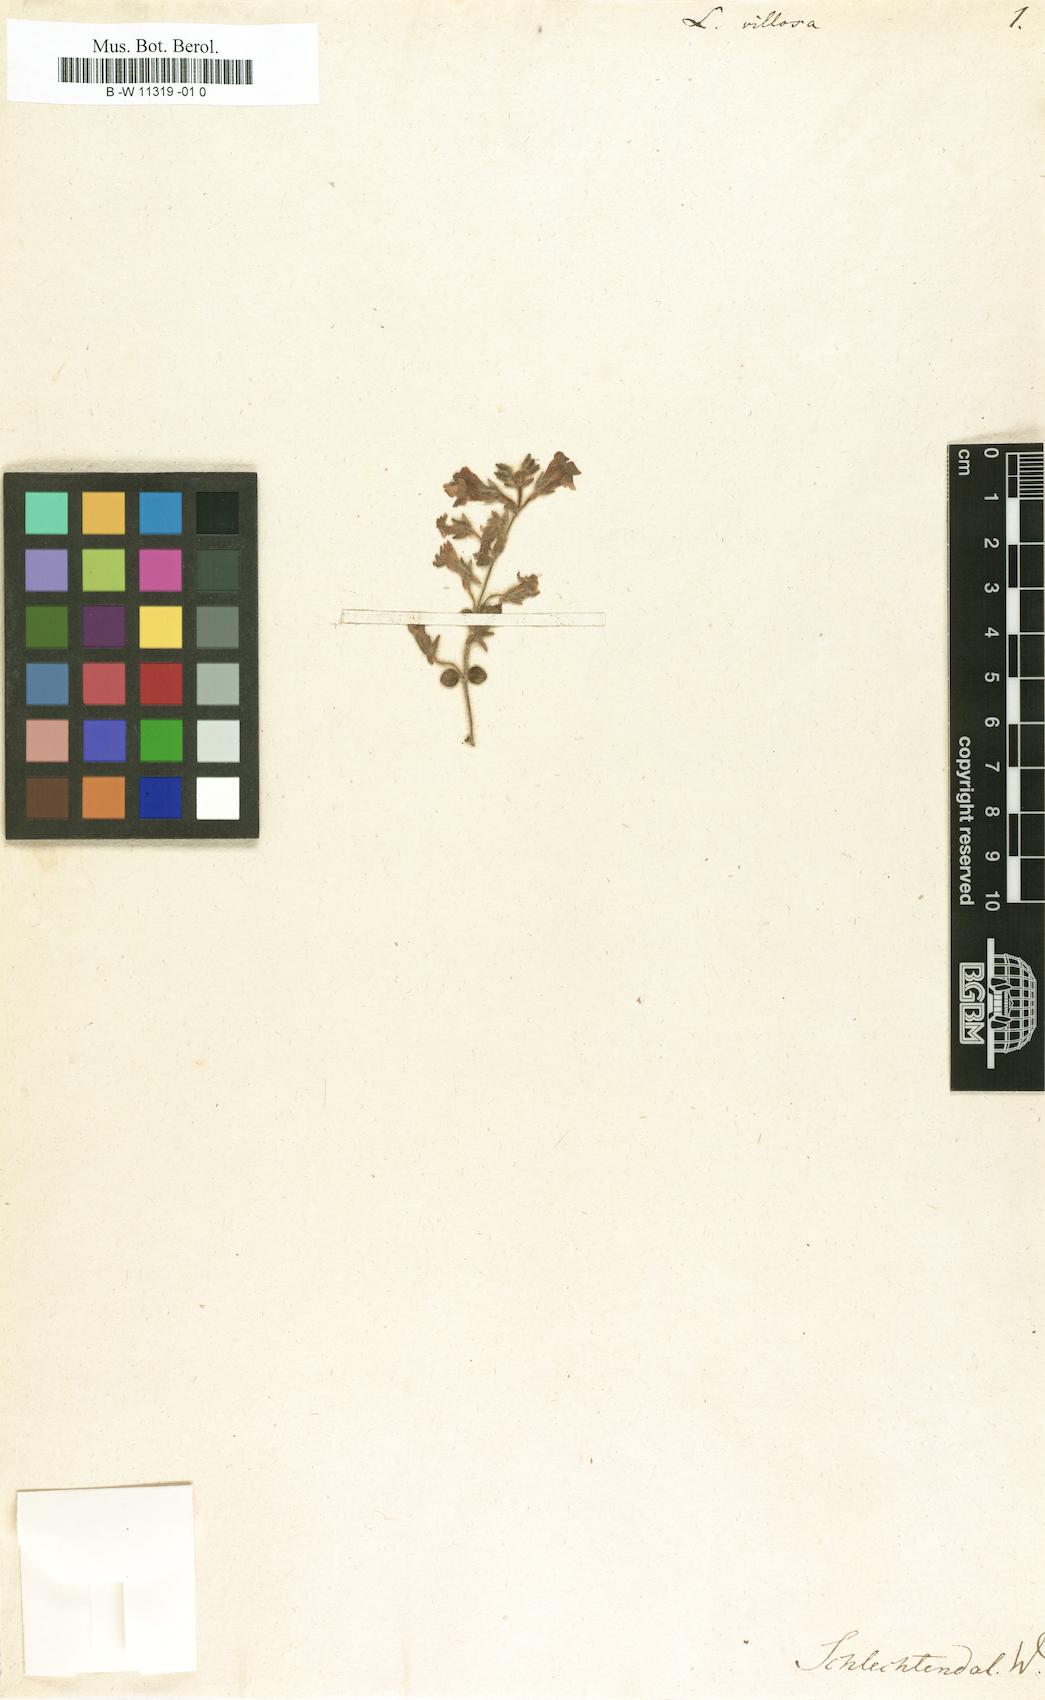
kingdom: Plantae
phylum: Tracheophyta
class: Magnoliopsida
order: Lamiales
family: Plantaginaceae
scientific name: Plantaginaceae
